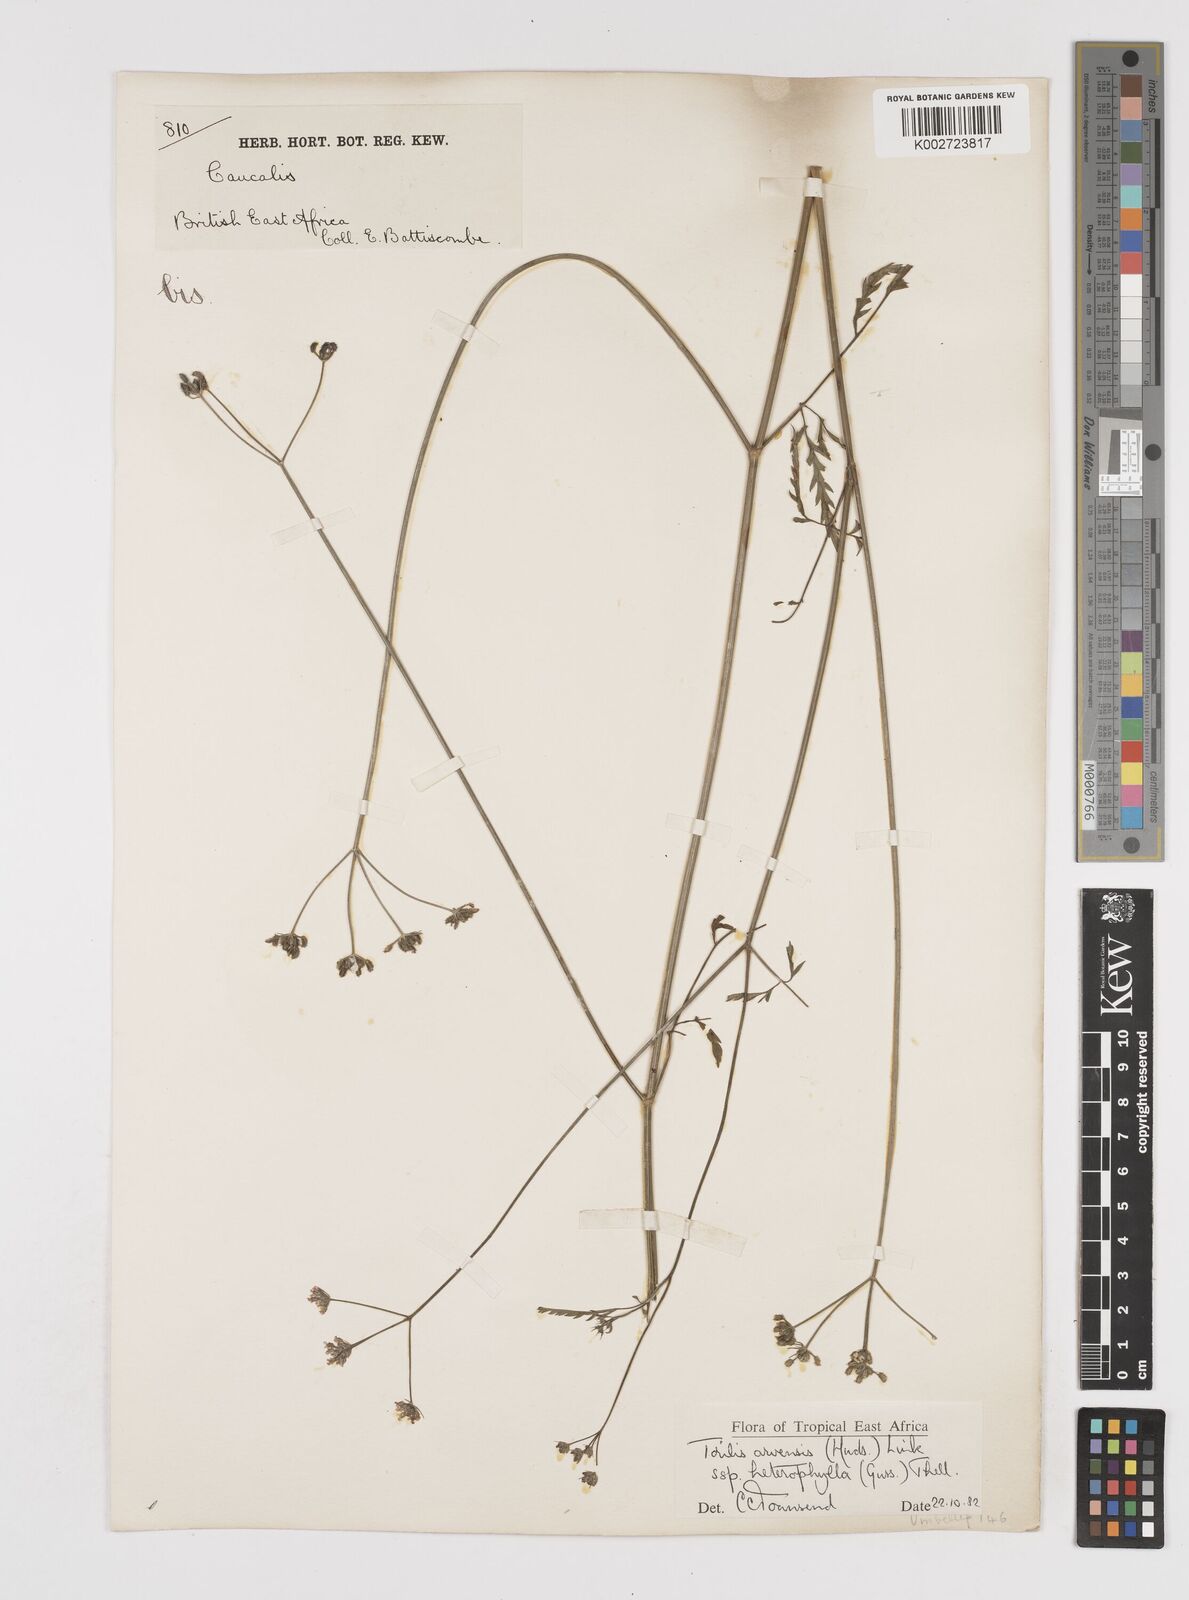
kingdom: Plantae
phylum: Tracheophyta
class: Magnoliopsida
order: Apiales
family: Apiaceae
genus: Torilis
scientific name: Torilis arvensis
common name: Spreading hedge-parsley
